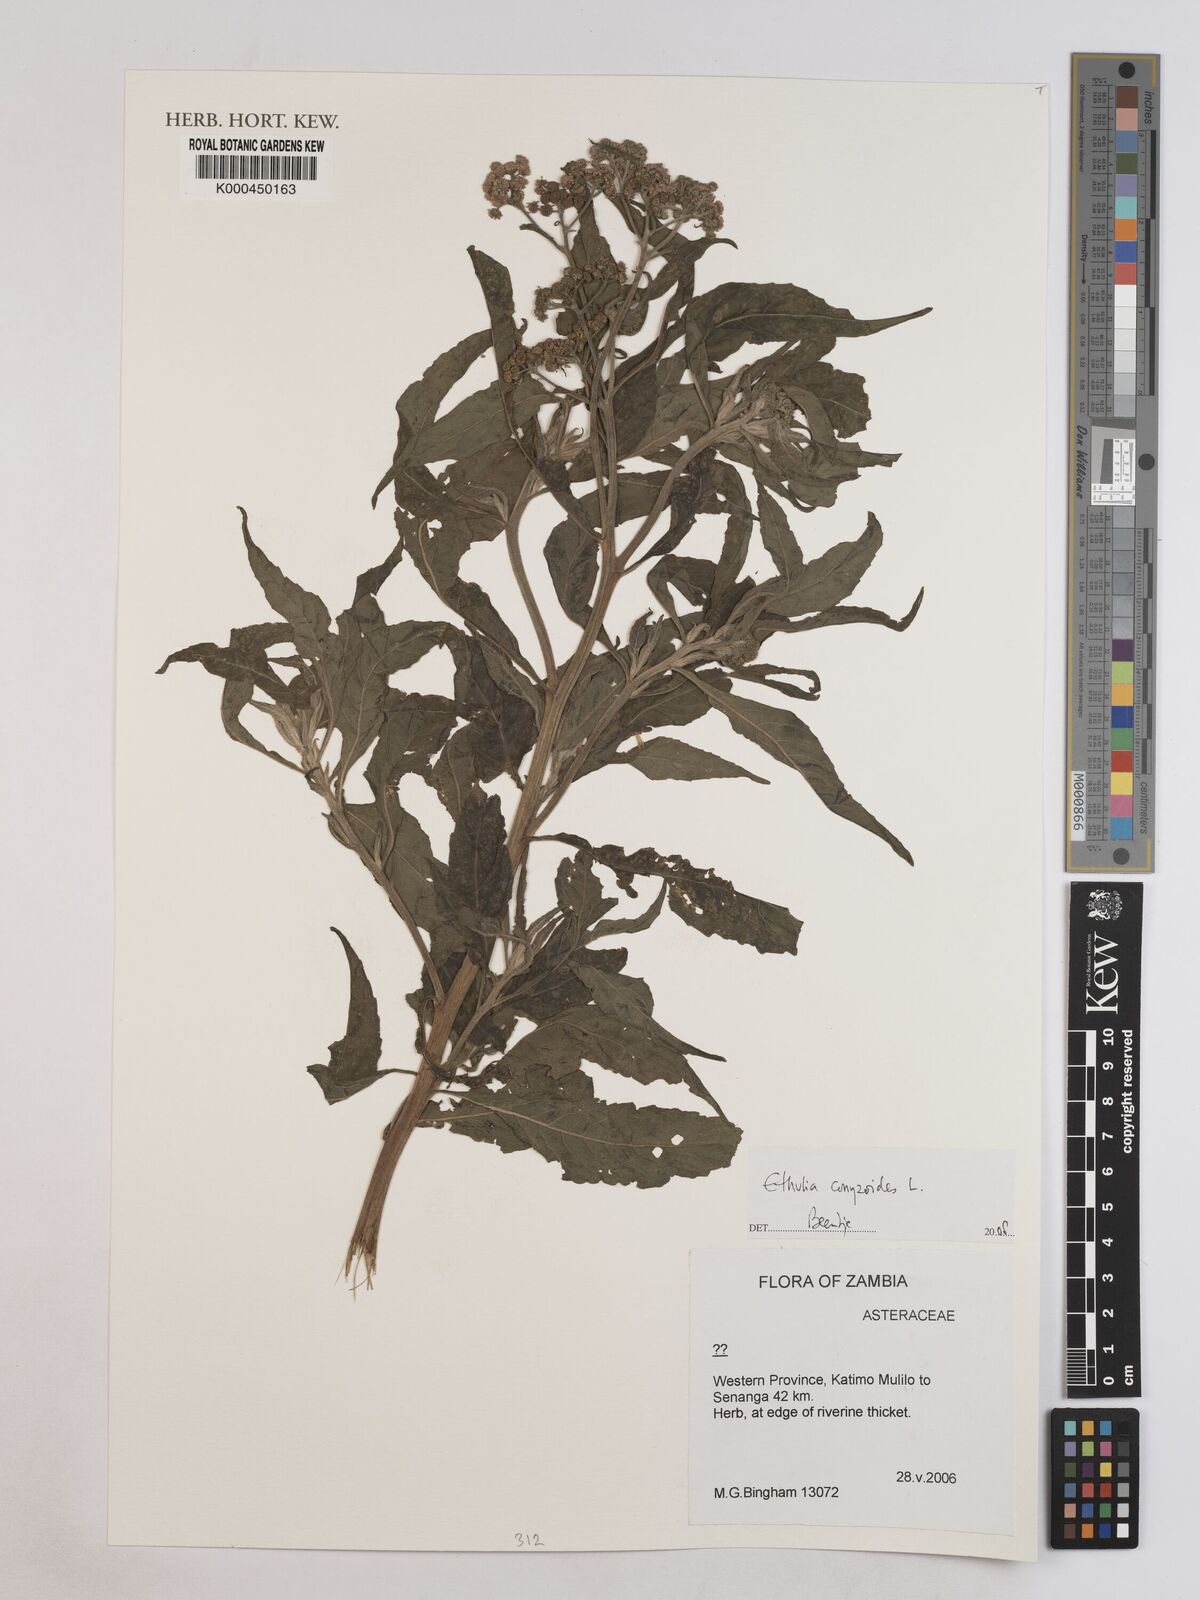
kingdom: Plantae
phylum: Tracheophyta
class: Magnoliopsida
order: Asterales
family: Asteraceae
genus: Ethulia
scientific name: Ethulia conyzoides
